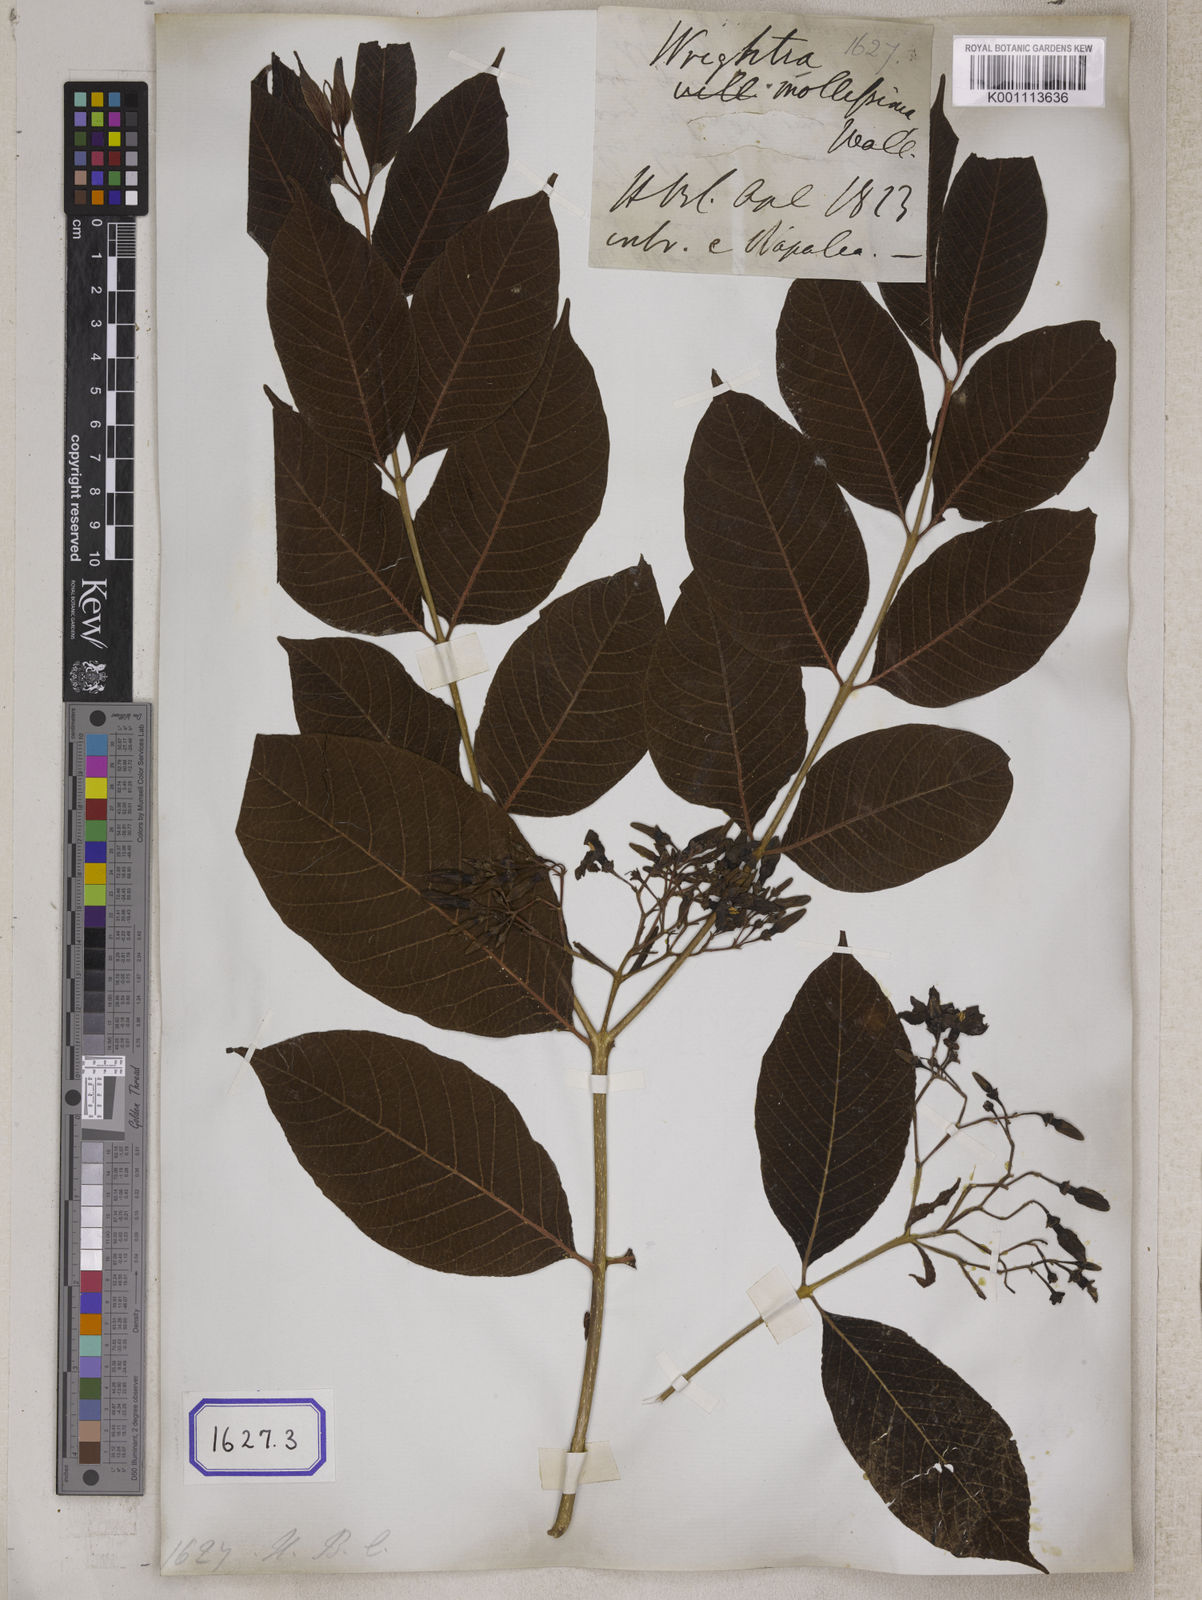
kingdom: Plantae
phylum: Tracheophyta
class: Magnoliopsida
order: Gentianales
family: Apocynaceae
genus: Wrightia
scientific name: Wrightia arborea
